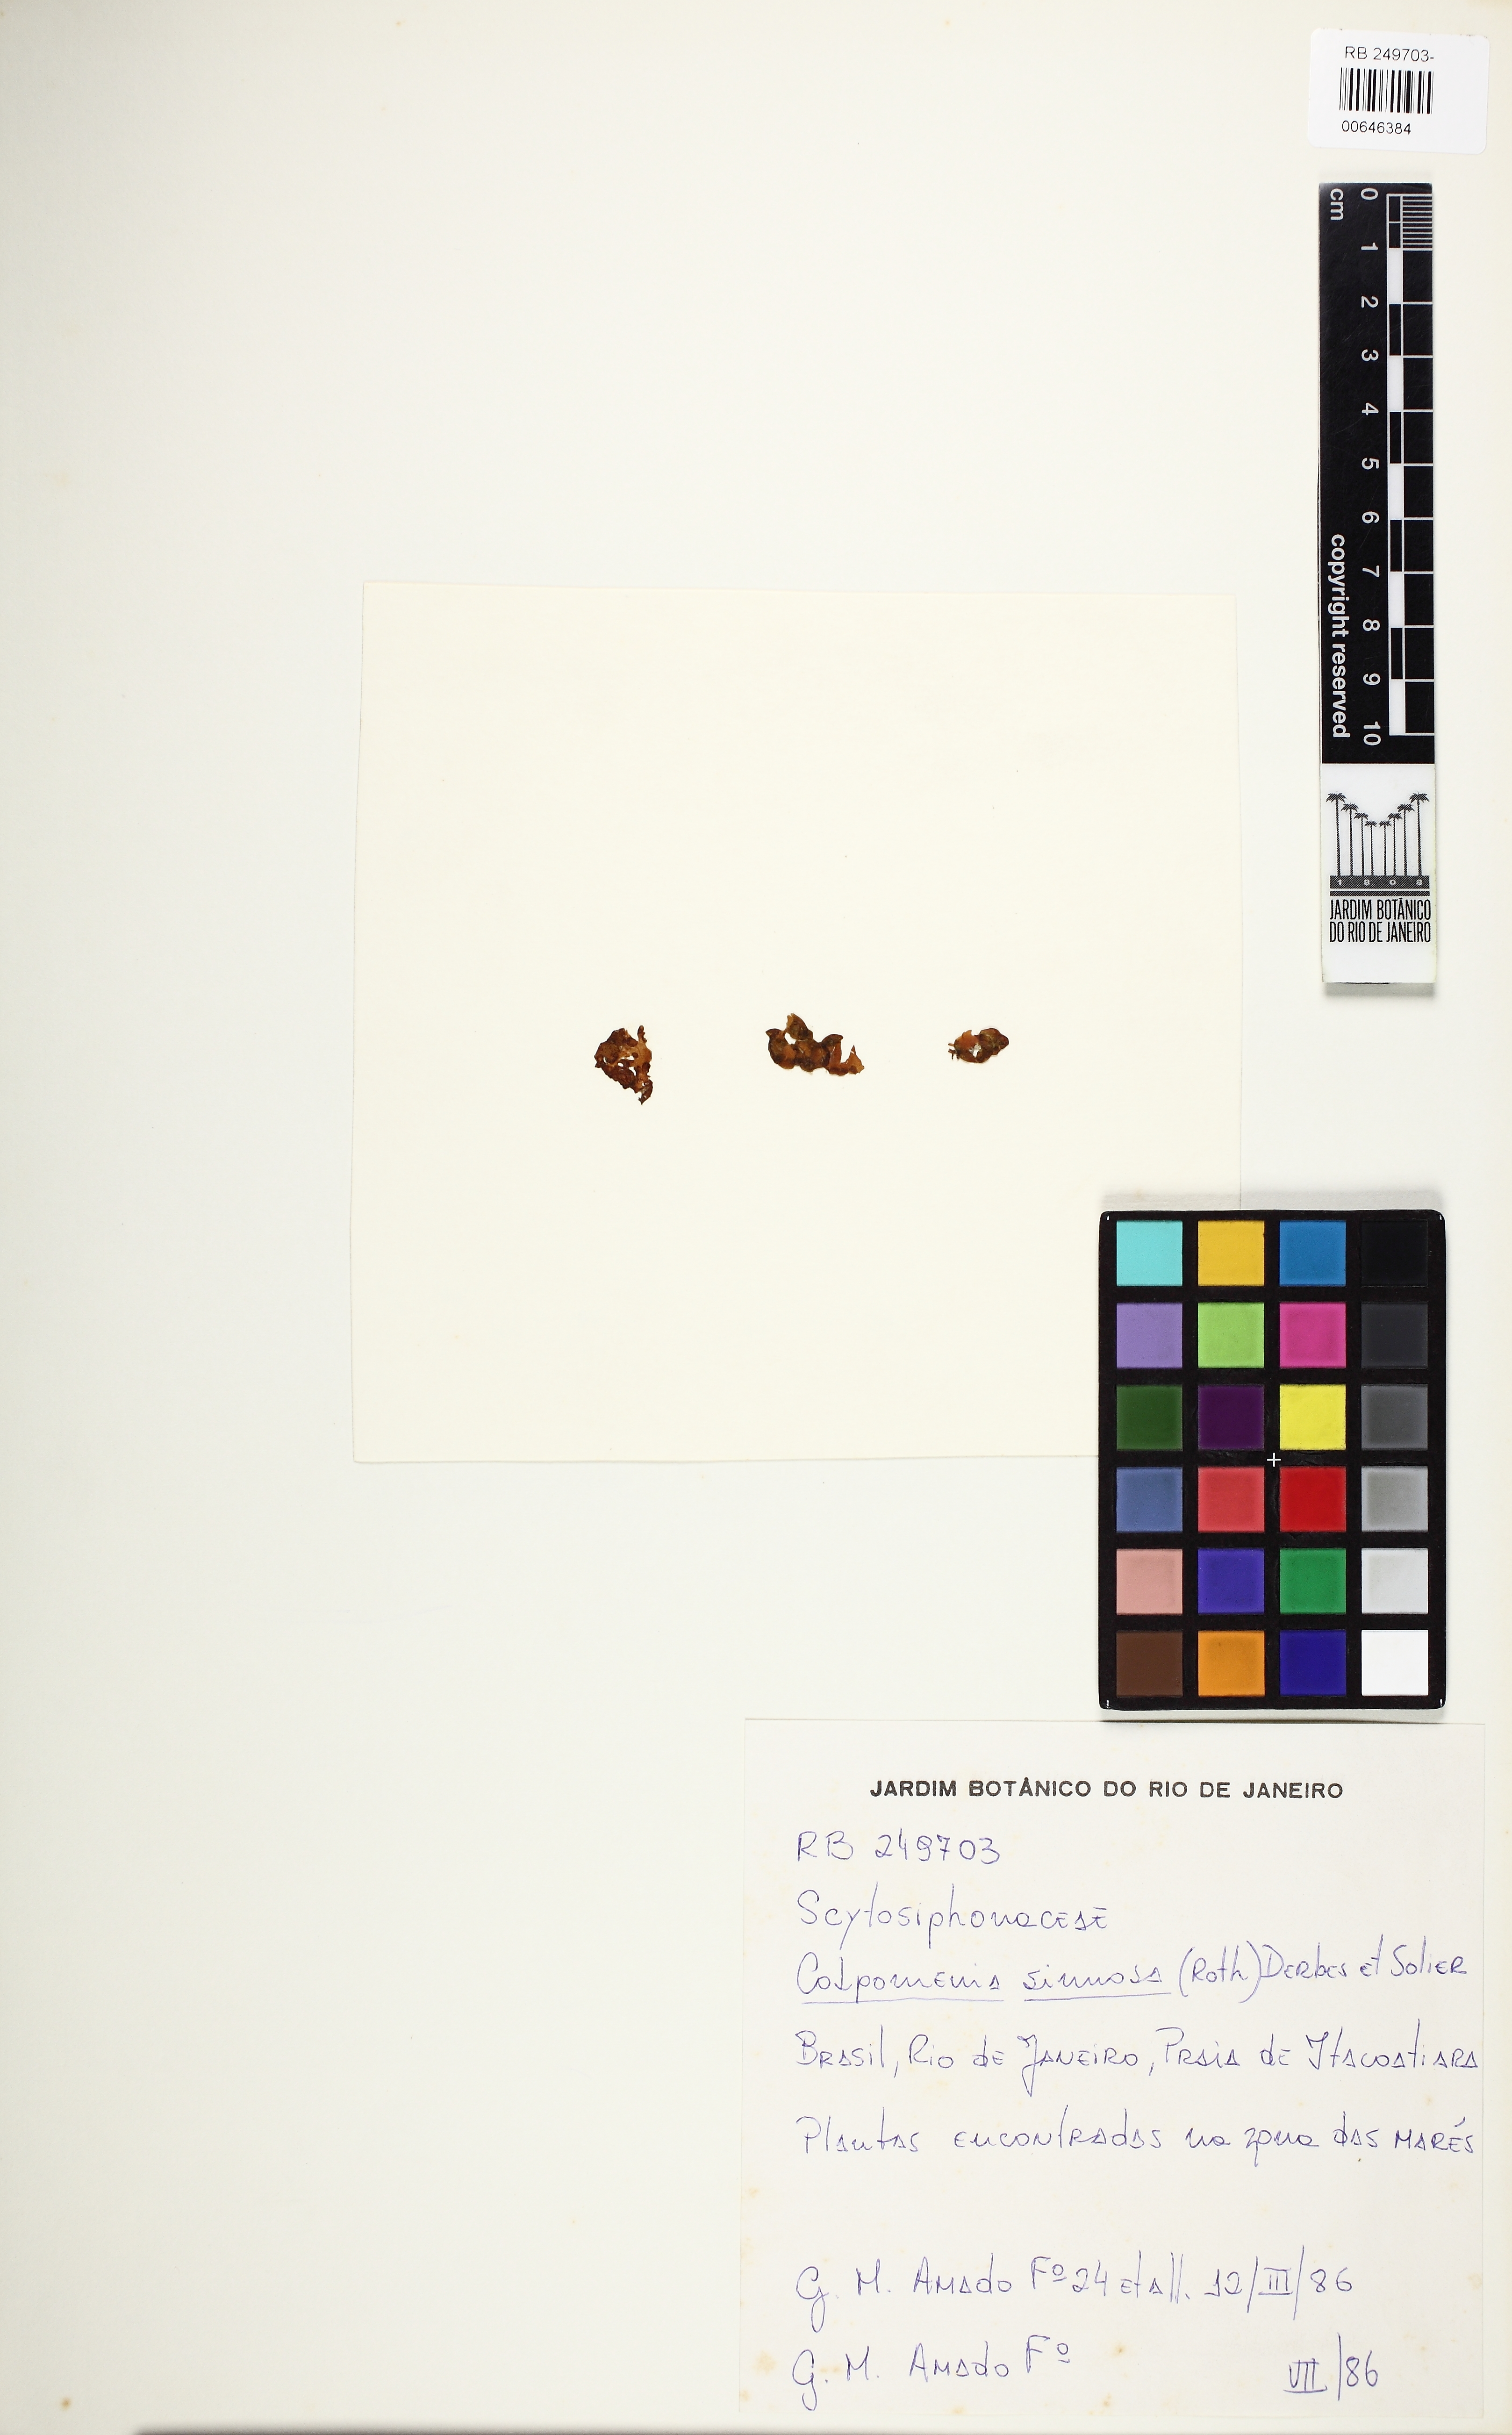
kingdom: Chromista
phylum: Ochrophyta
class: Phaeophyceae
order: Scytosiphonales
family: Scytosiphonaceae
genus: Colpomenia
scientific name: Colpomenia sinuosa
